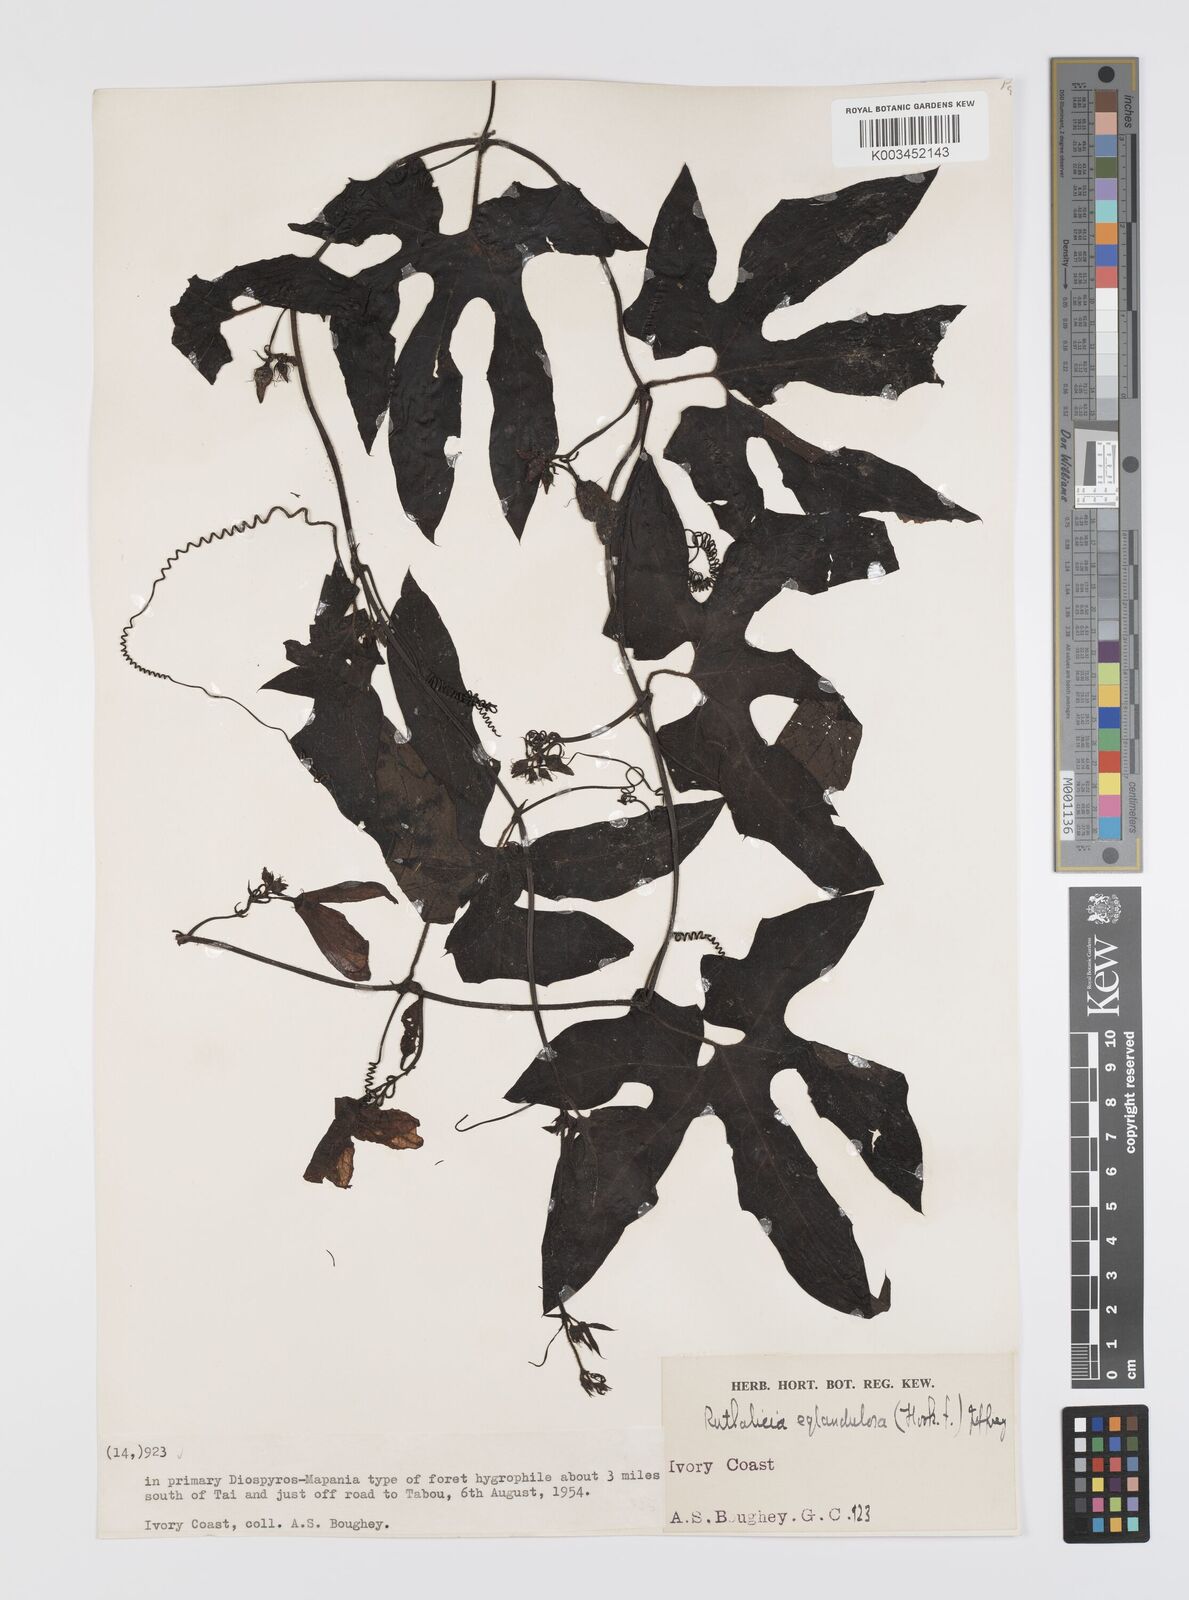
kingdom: Plantae
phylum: Tracheophyta
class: Magnoliopsida
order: Cucurbitales
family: Cucurbitaceae
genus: Ruthalicia
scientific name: Ruthalicia eglandulosa
